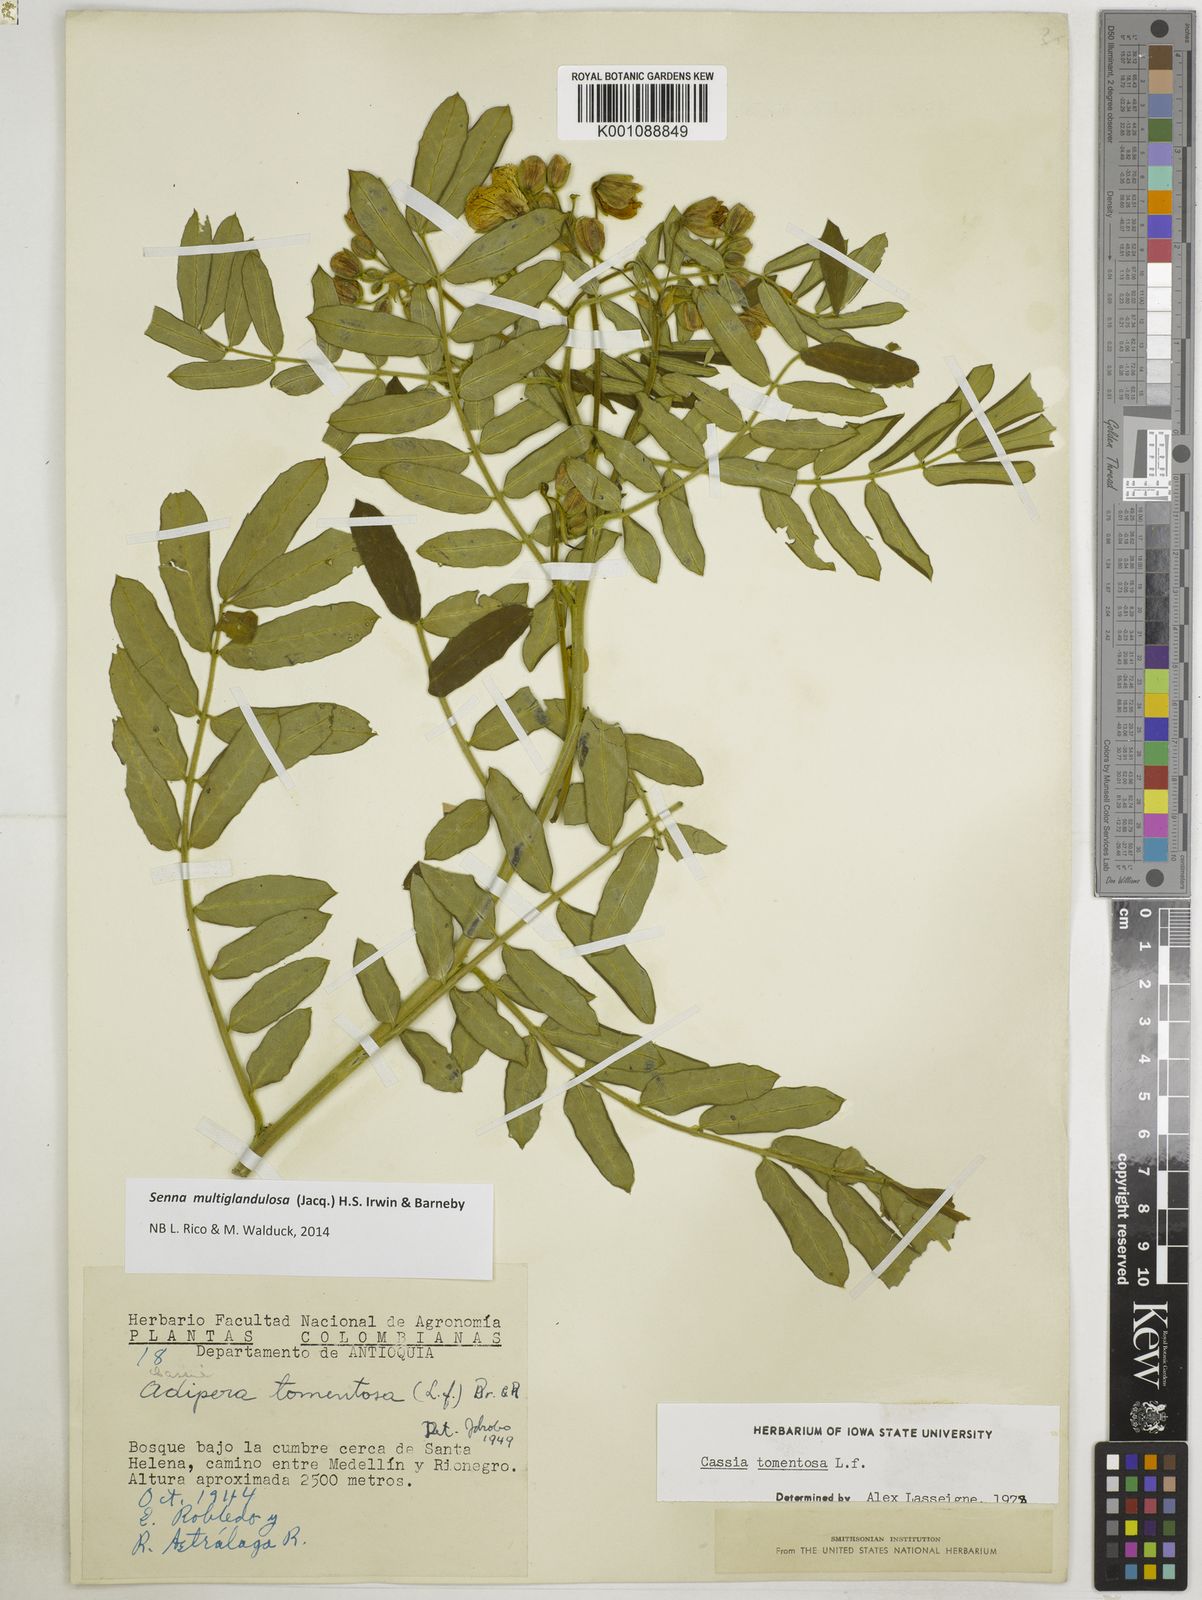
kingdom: Plantae
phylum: Tracheophyta
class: Magnoliopsida
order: Fabales
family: Fabaceae
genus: Senna
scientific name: Senna multiglandulosa
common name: Glandular senna
